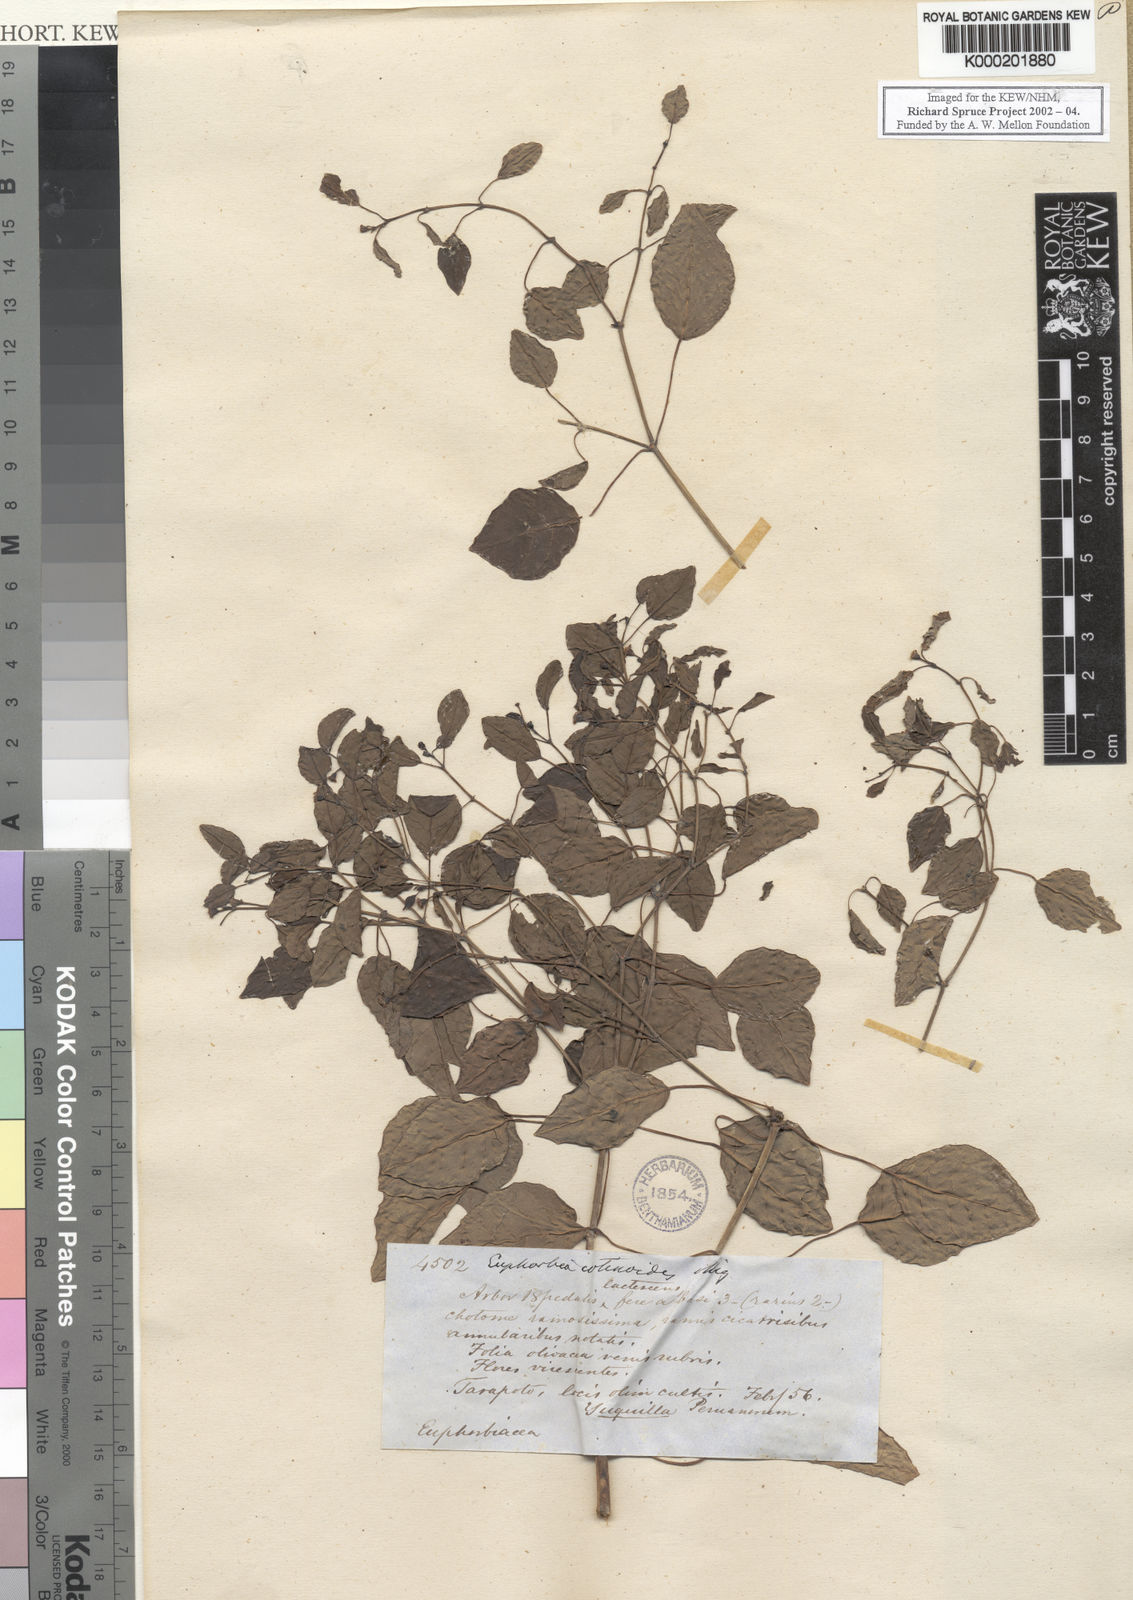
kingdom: Plantae
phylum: Tracheophyta
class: Magnoliopsida
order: Malpighiales
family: Euphorbiaceae
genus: Euphorbia
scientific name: Euphorbia cotinifolia
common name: Tropical smokebush
